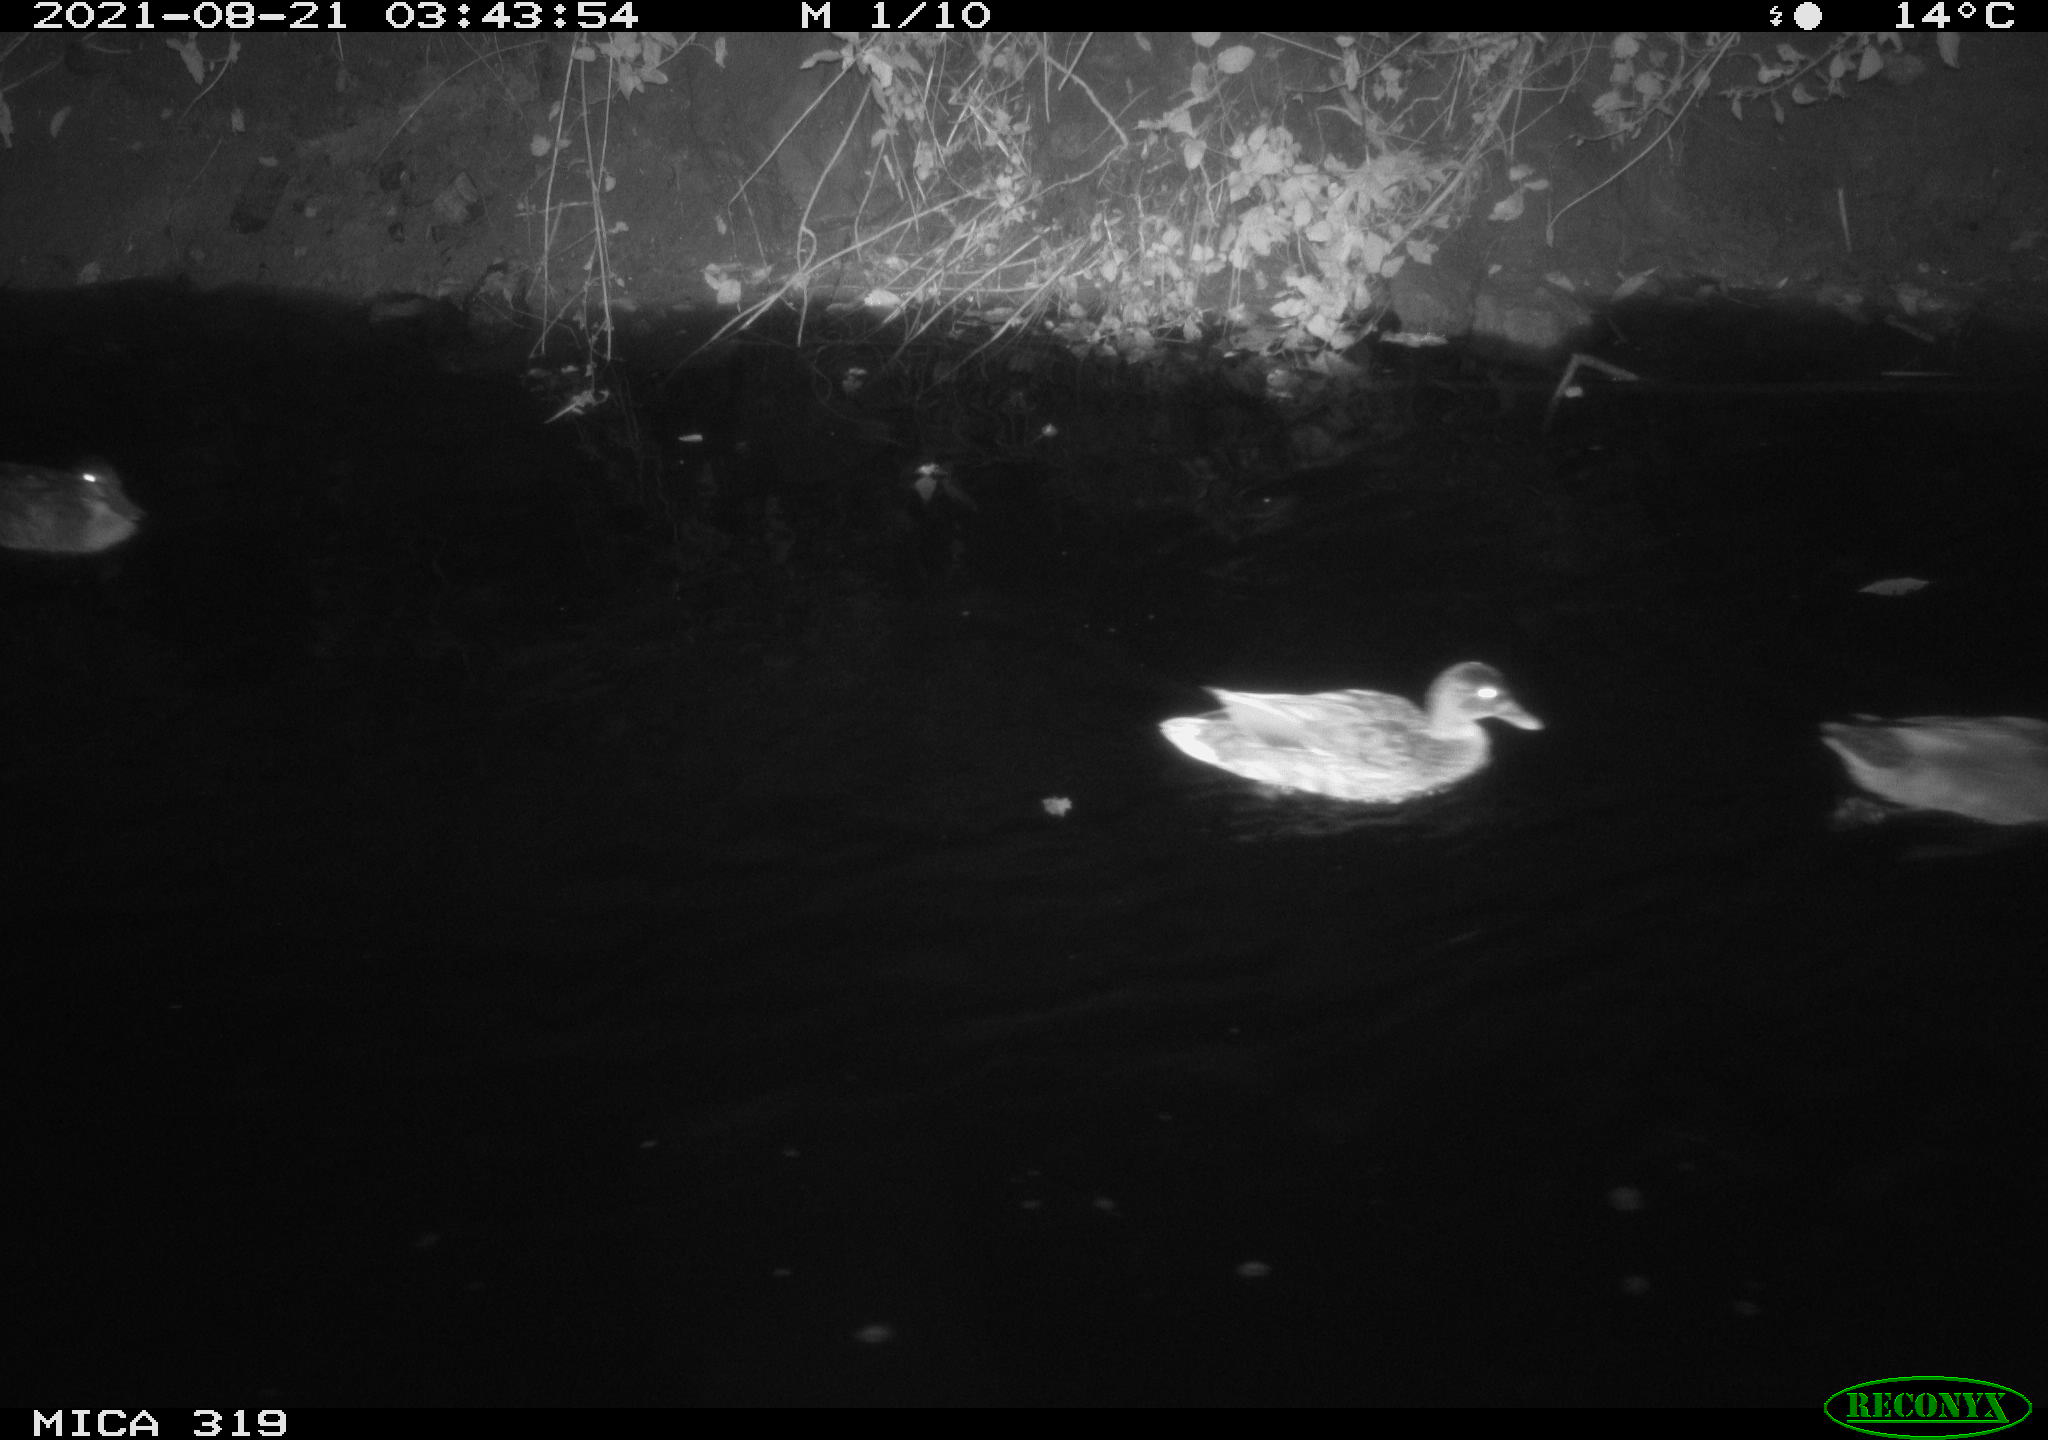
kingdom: Animalia
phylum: Chordata
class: Aves
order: Anseriformes
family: Anatidae
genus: Anas
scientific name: Anas platyrhynchos
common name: Mallard
